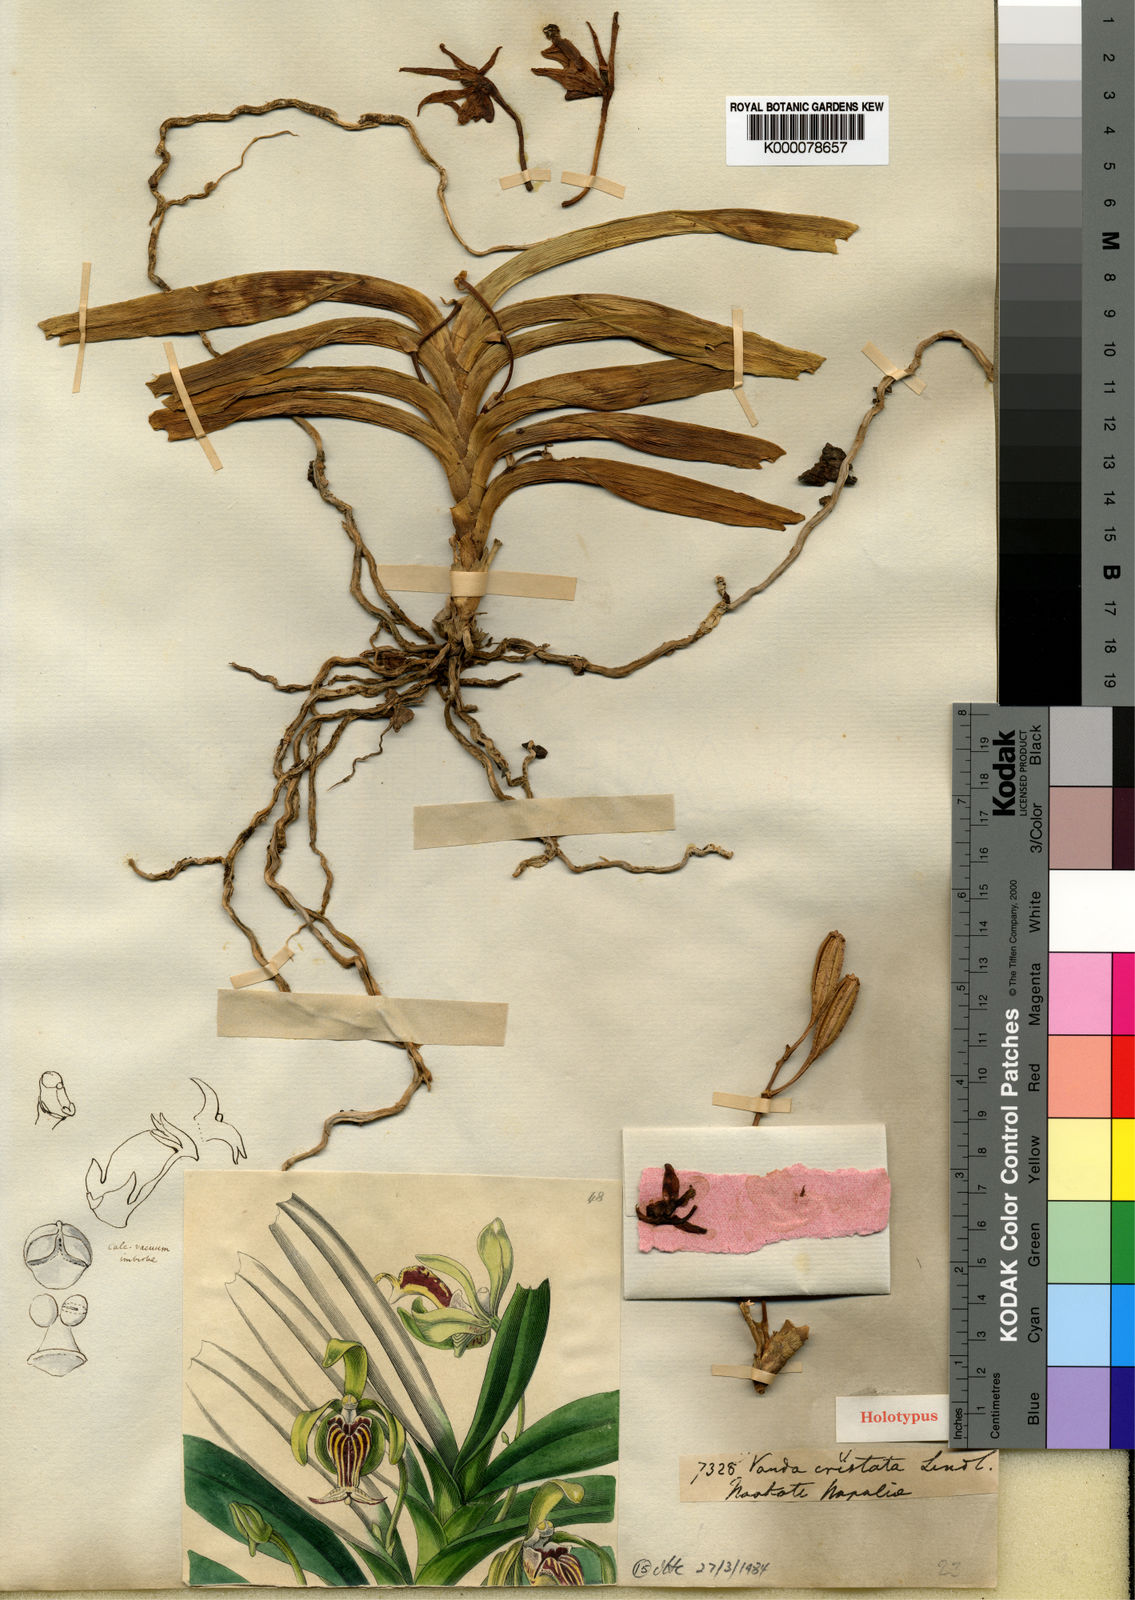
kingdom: Plantae
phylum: Tracheophyta
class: Liliopsida
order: Asparagales
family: Orchidaceae
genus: Vanda
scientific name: Vanda
